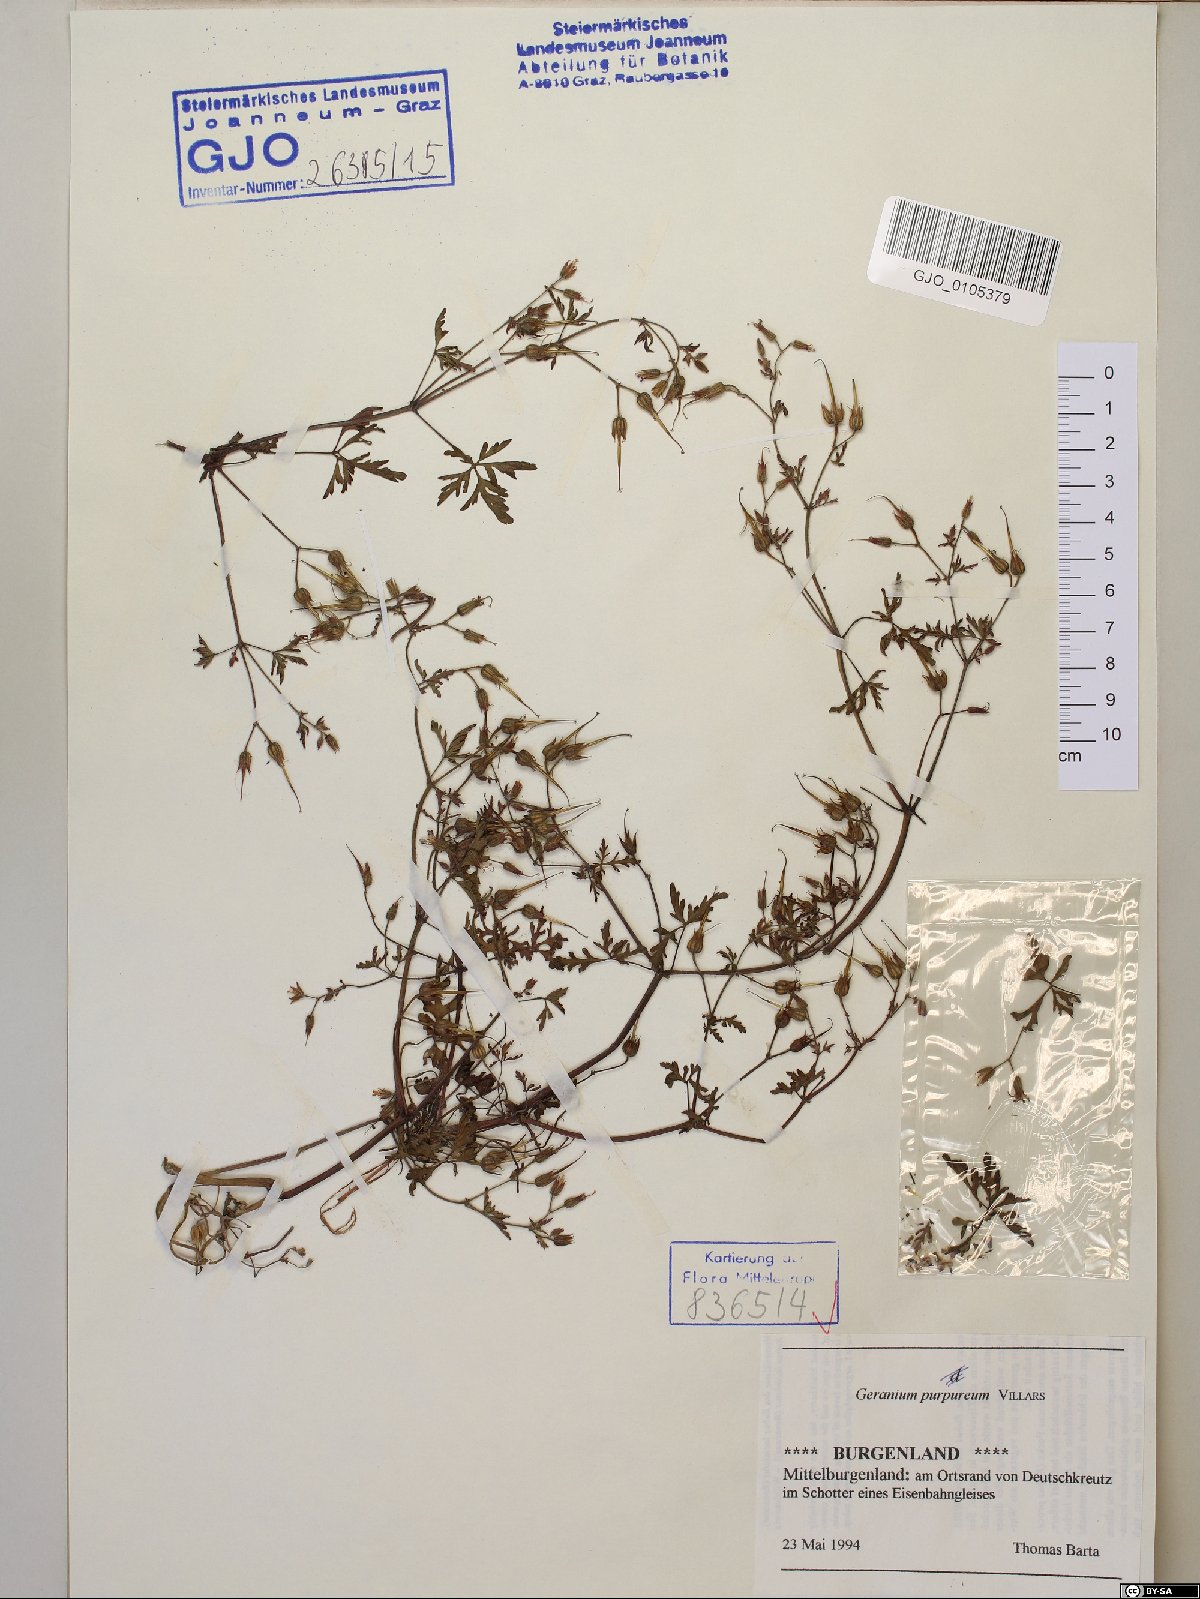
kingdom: Plantae
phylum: Tracheophyta
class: Magnoliopsida
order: Geraniales
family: Geraniaceae
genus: Geranium
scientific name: Geranium purpureum
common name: Little-robin
